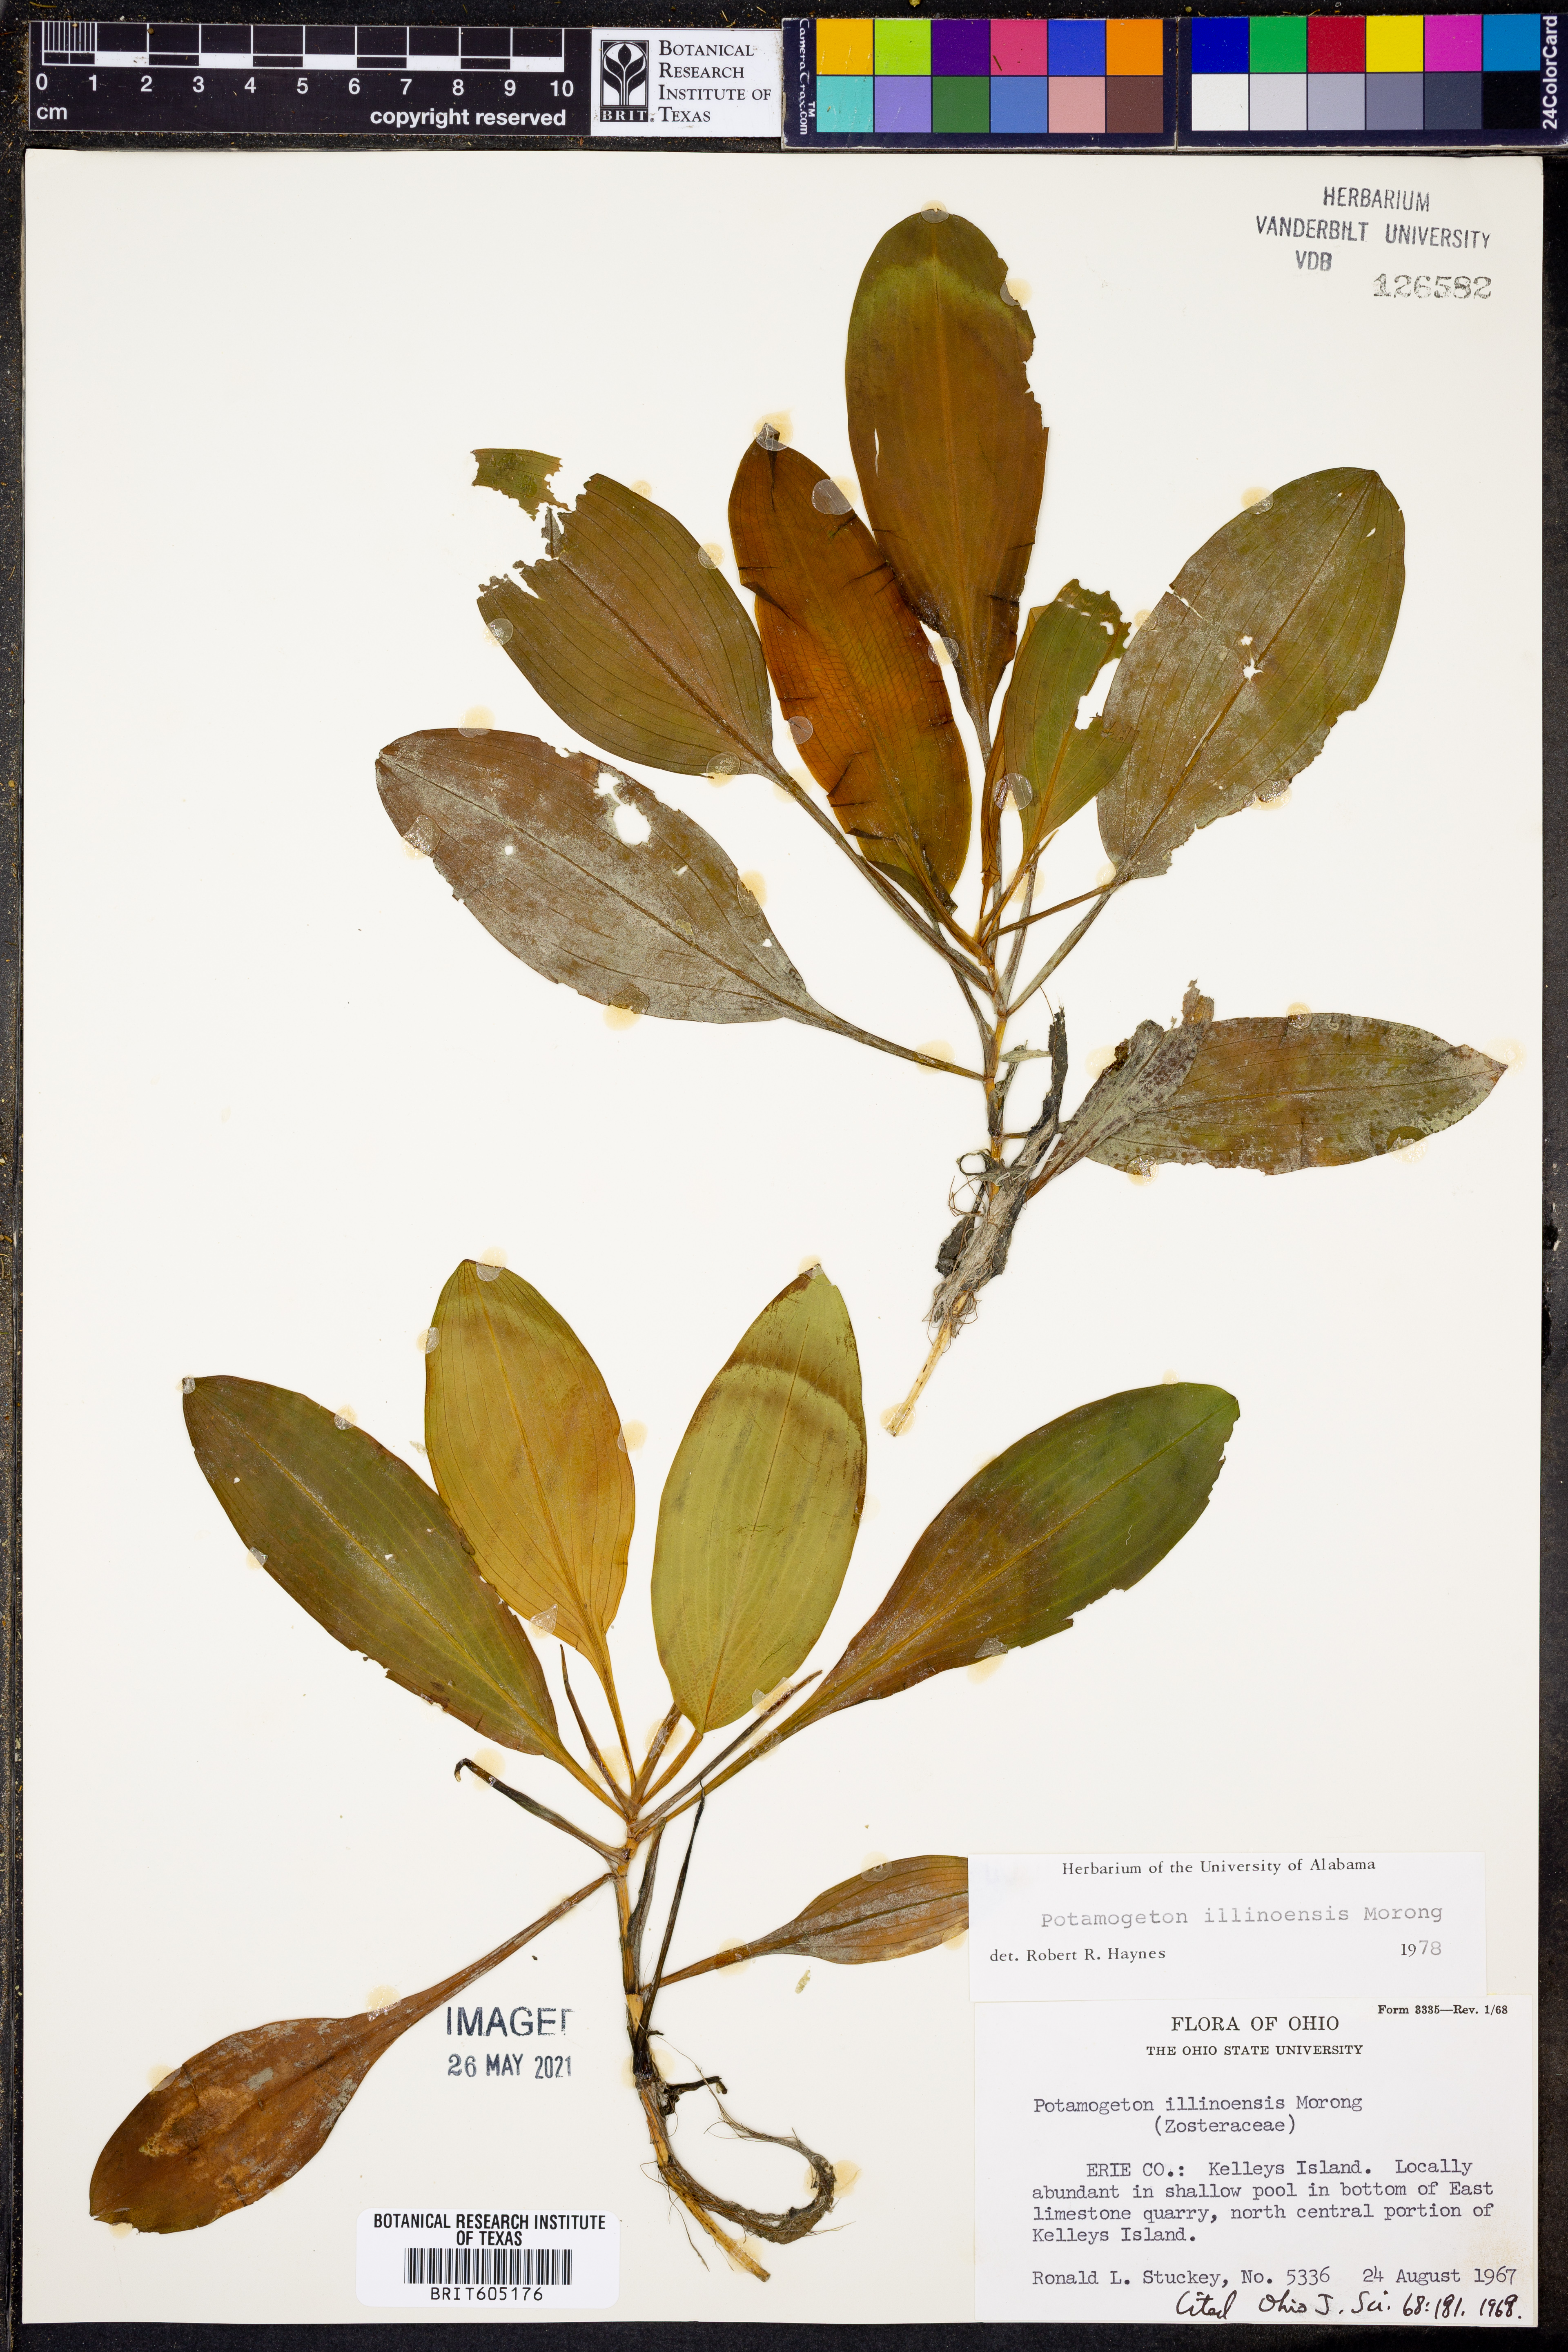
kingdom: Plantae
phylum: Tracheophyta
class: Liliopsida
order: Alismatales
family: Potamogetonaceae
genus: Potamogeton
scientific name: Potamogeton illinoensis
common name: Illinois pondweed
